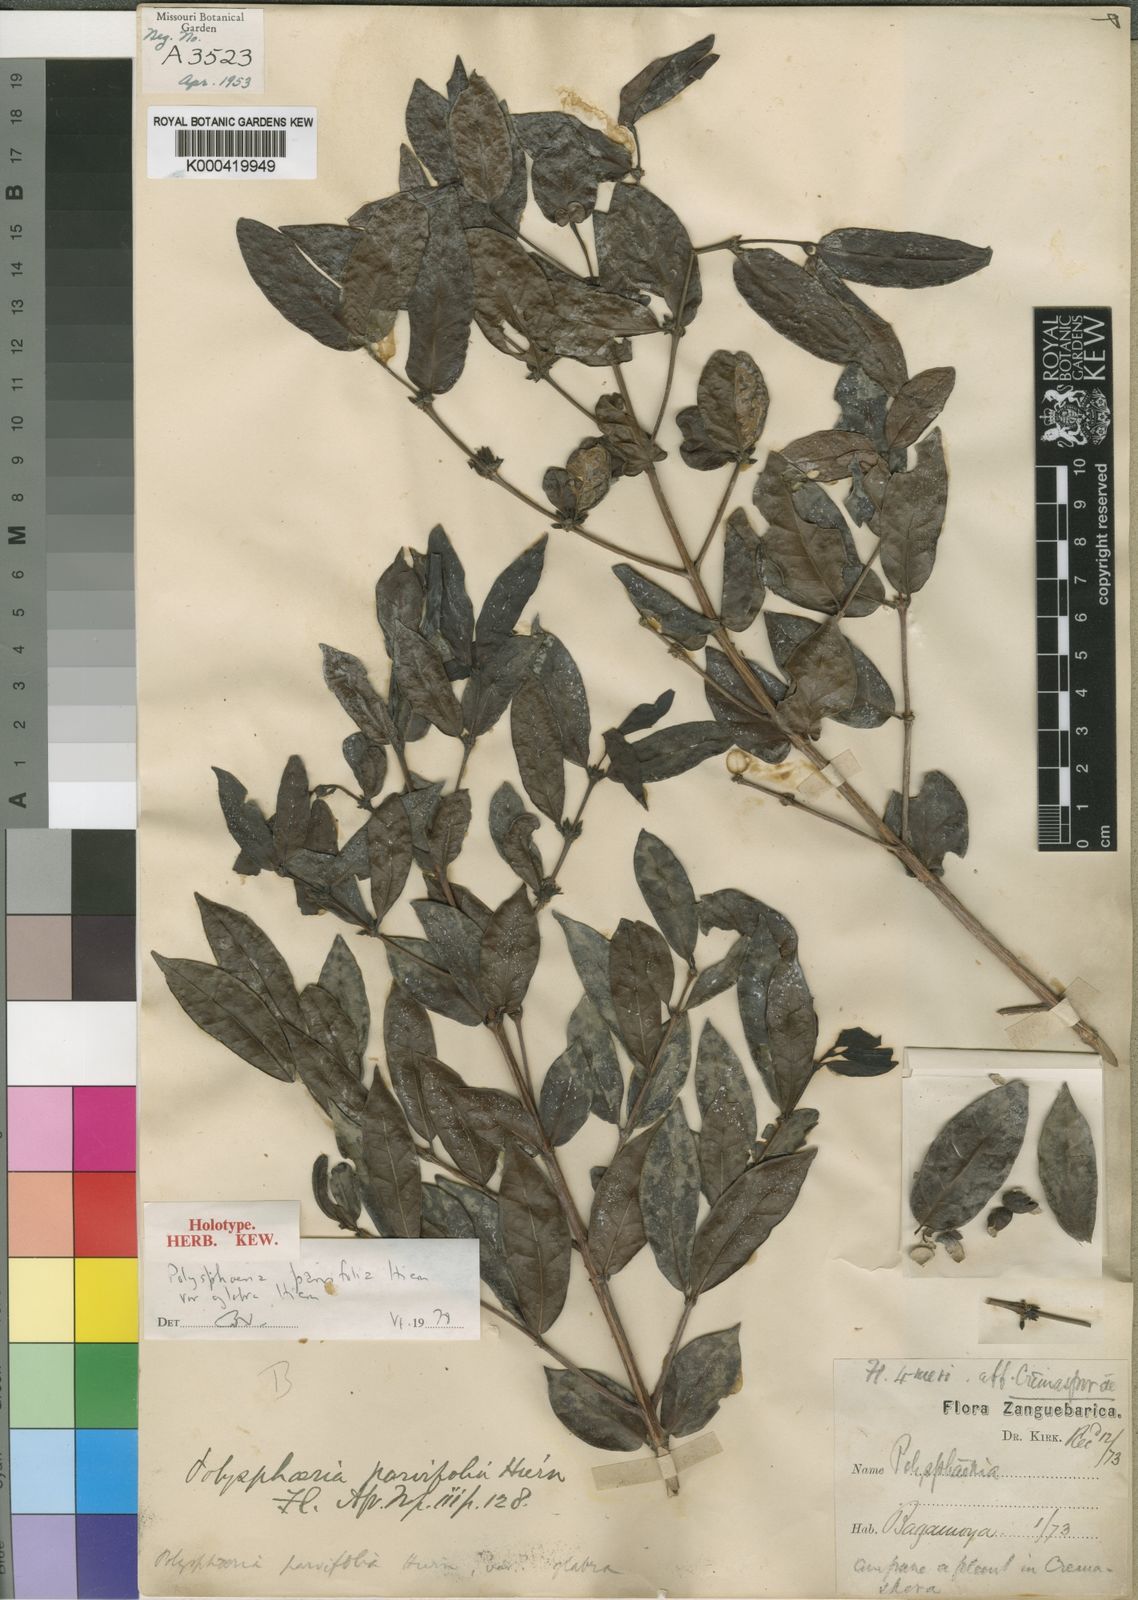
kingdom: Plantae
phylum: Tracheophyta
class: Magnoliopsida
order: Gentianales
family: Rubiaceae
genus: Polysphaeria
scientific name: Polysphaeria parvifolia
